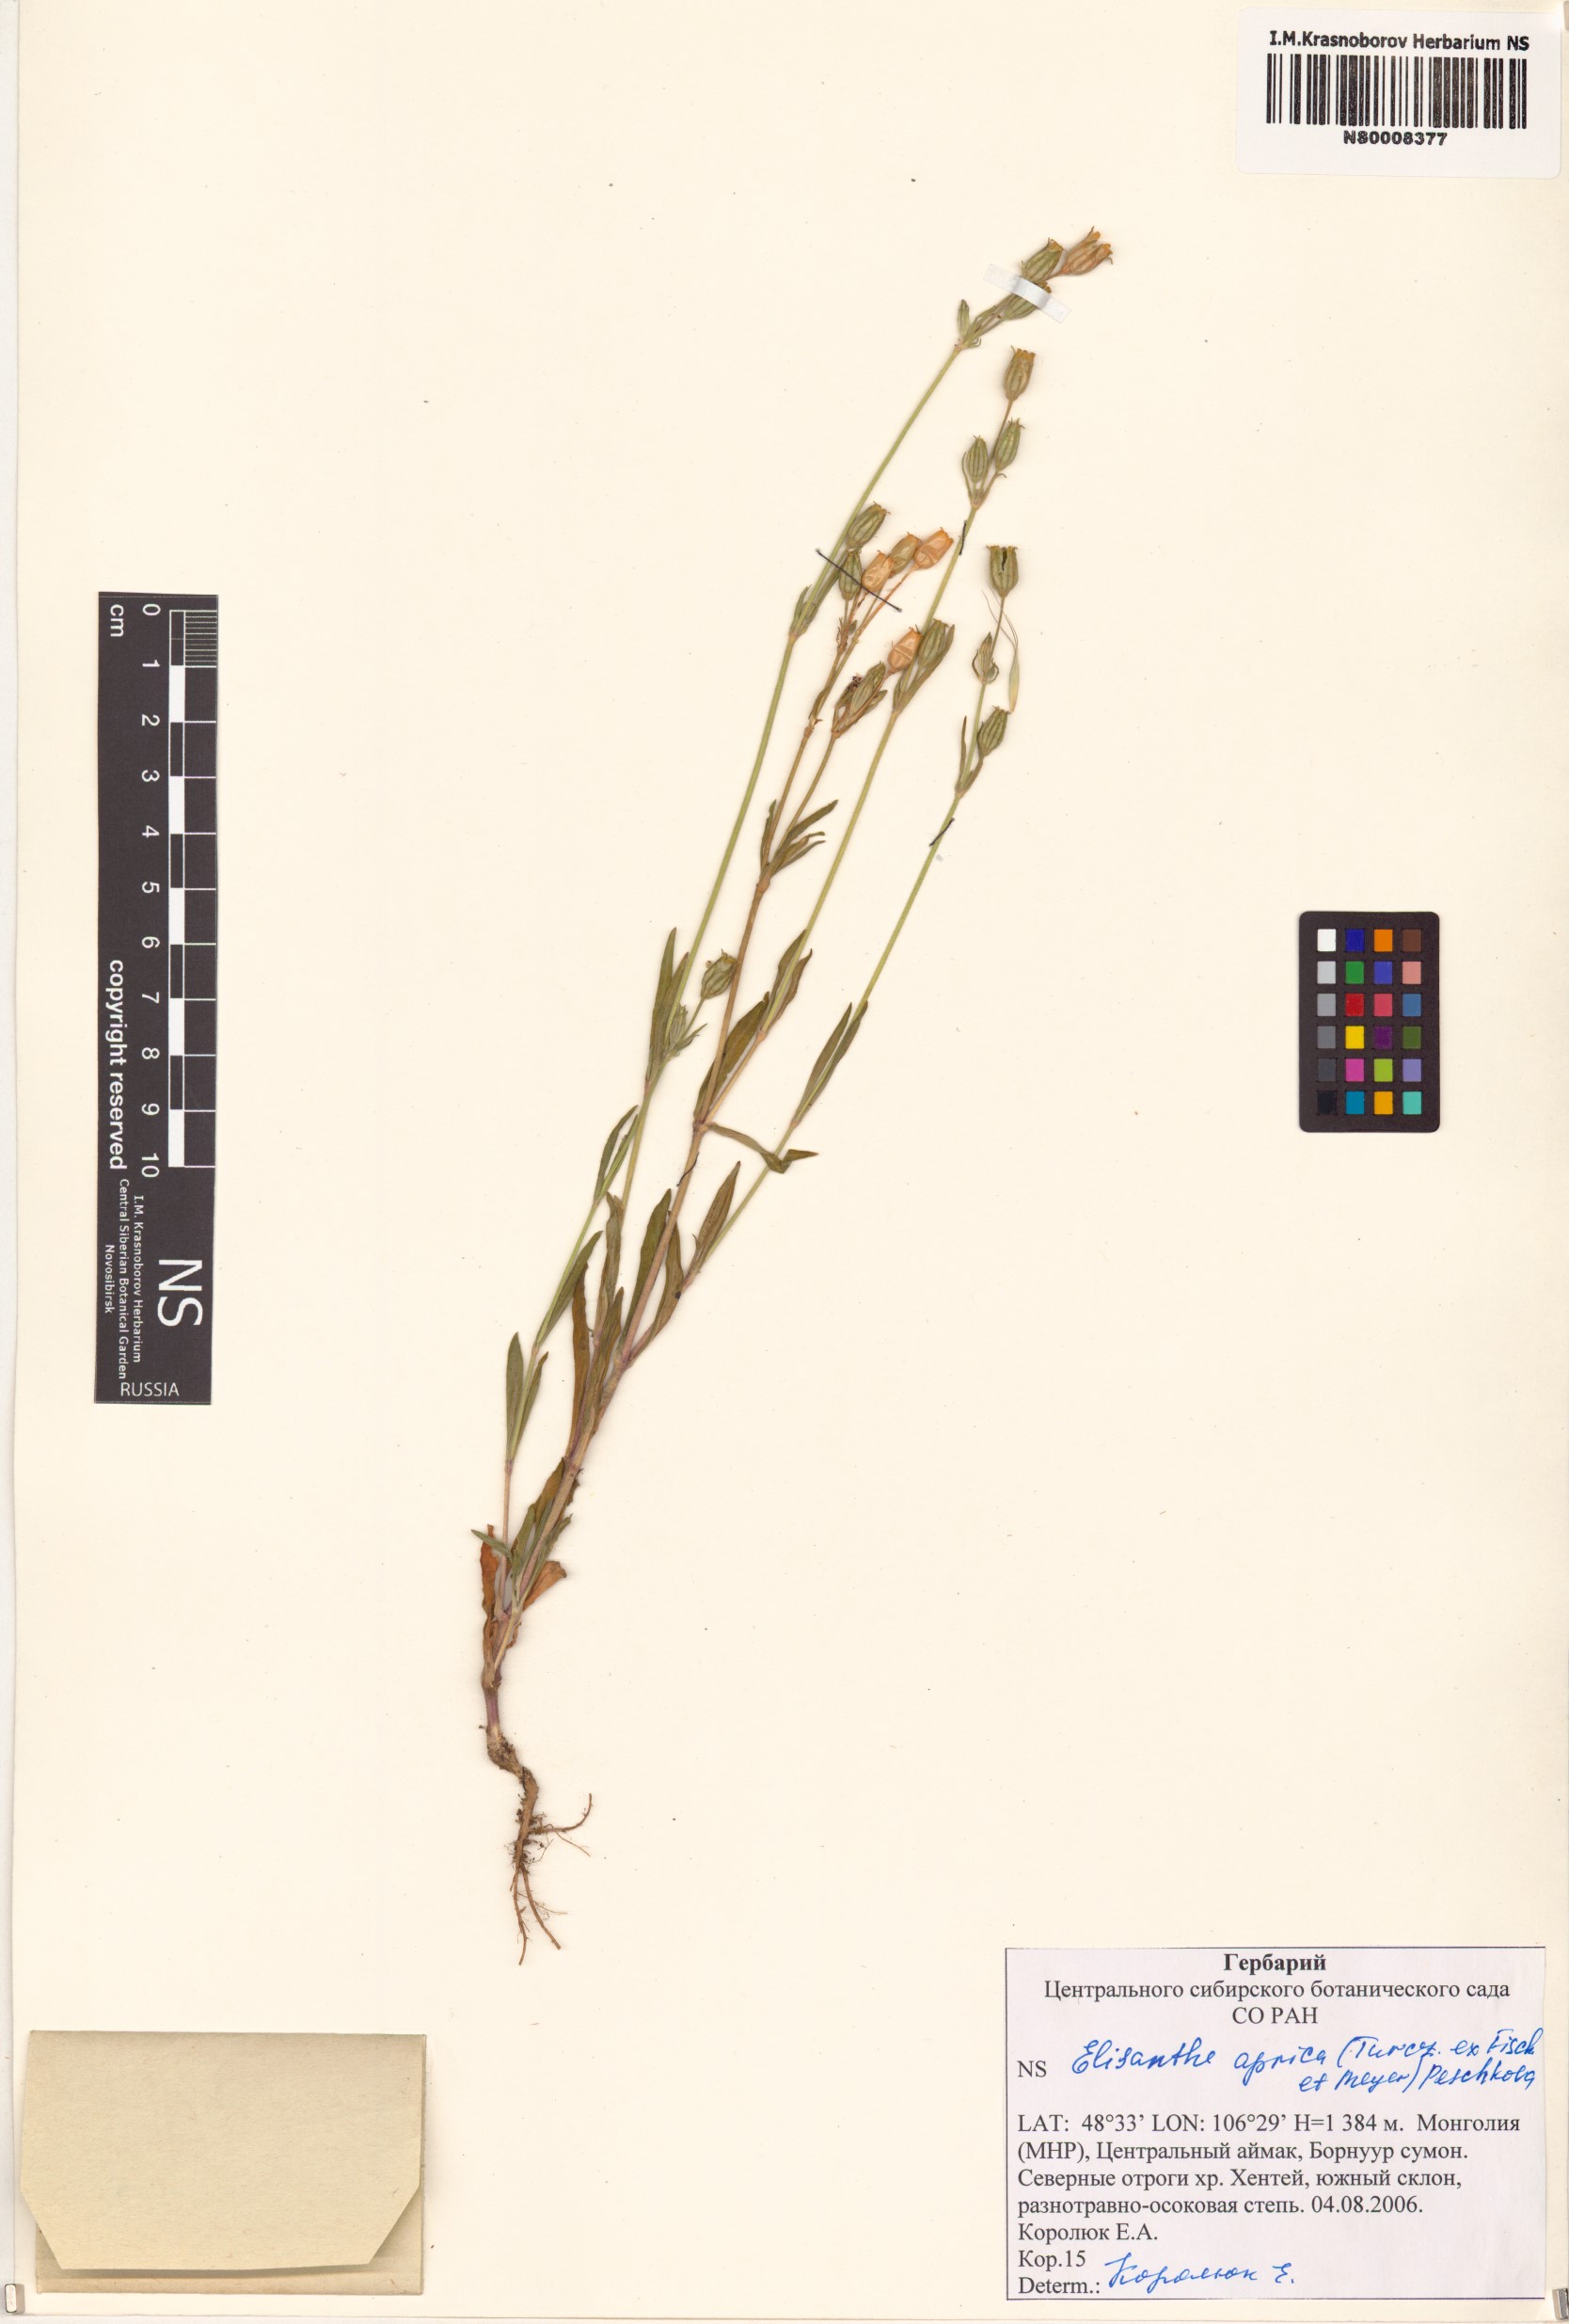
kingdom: Plantae
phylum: Tracheophyta
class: Magnoliopsida
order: Caryophyllales
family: Caryophyllaceae
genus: Silene
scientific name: Silene aprica
